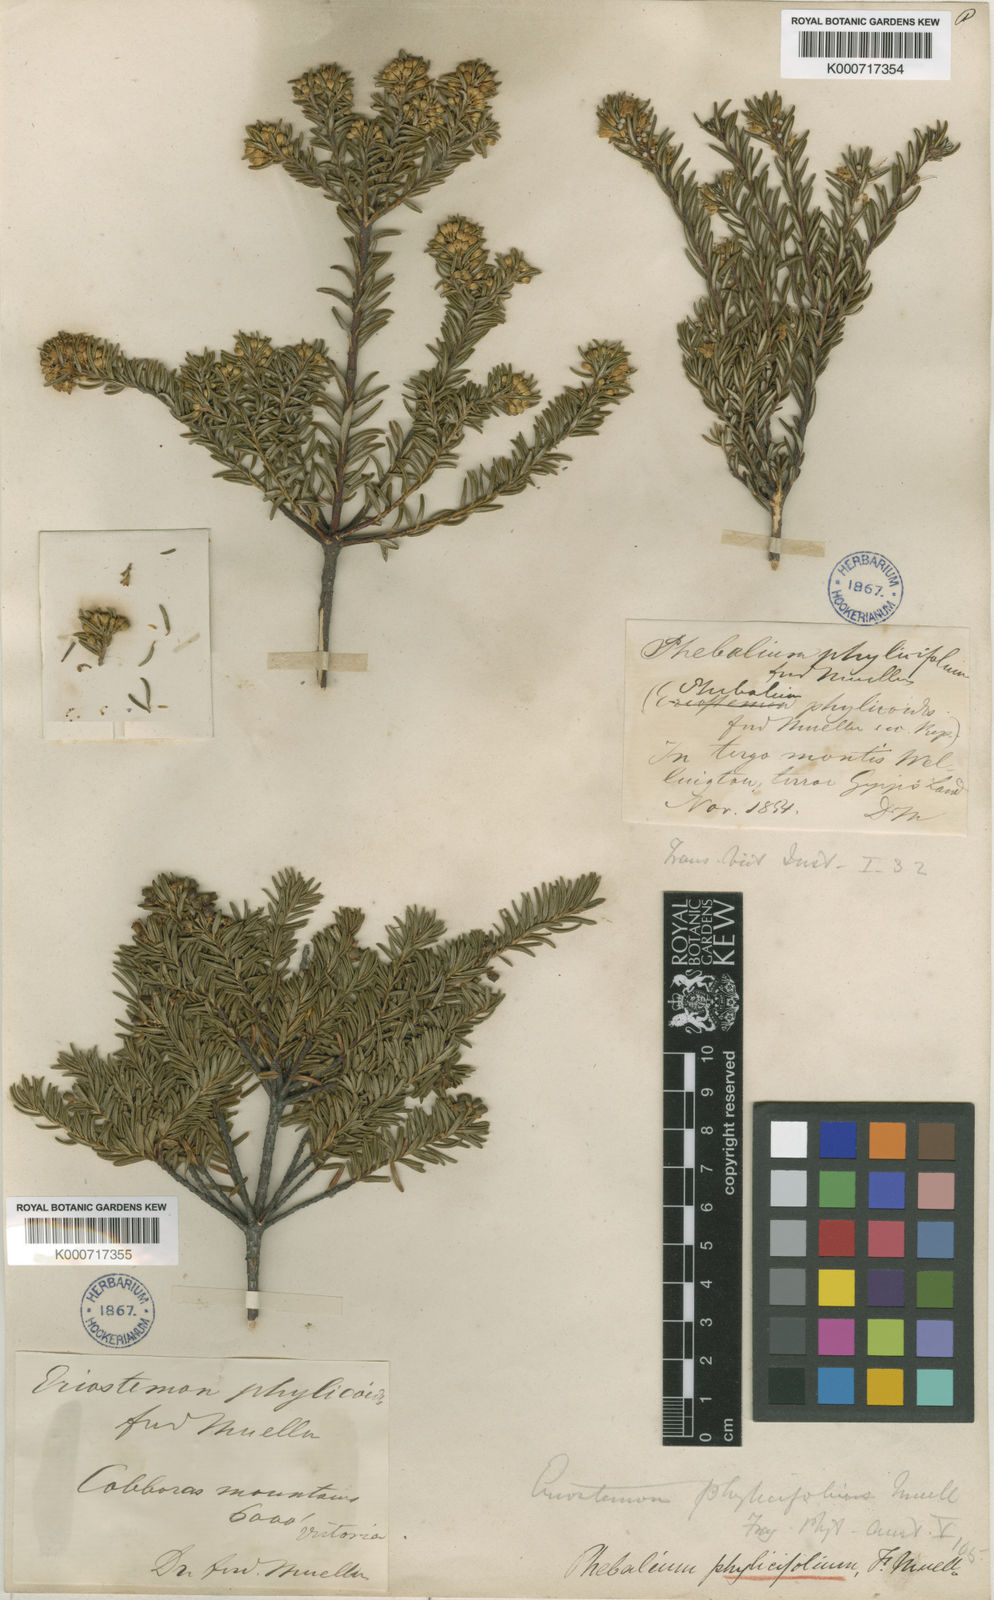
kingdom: Plantae
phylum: Tracheophyta
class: Magnoliopsida
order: Sapindales
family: Rutaceae
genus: Leionema
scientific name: Leionema phylicifolium
